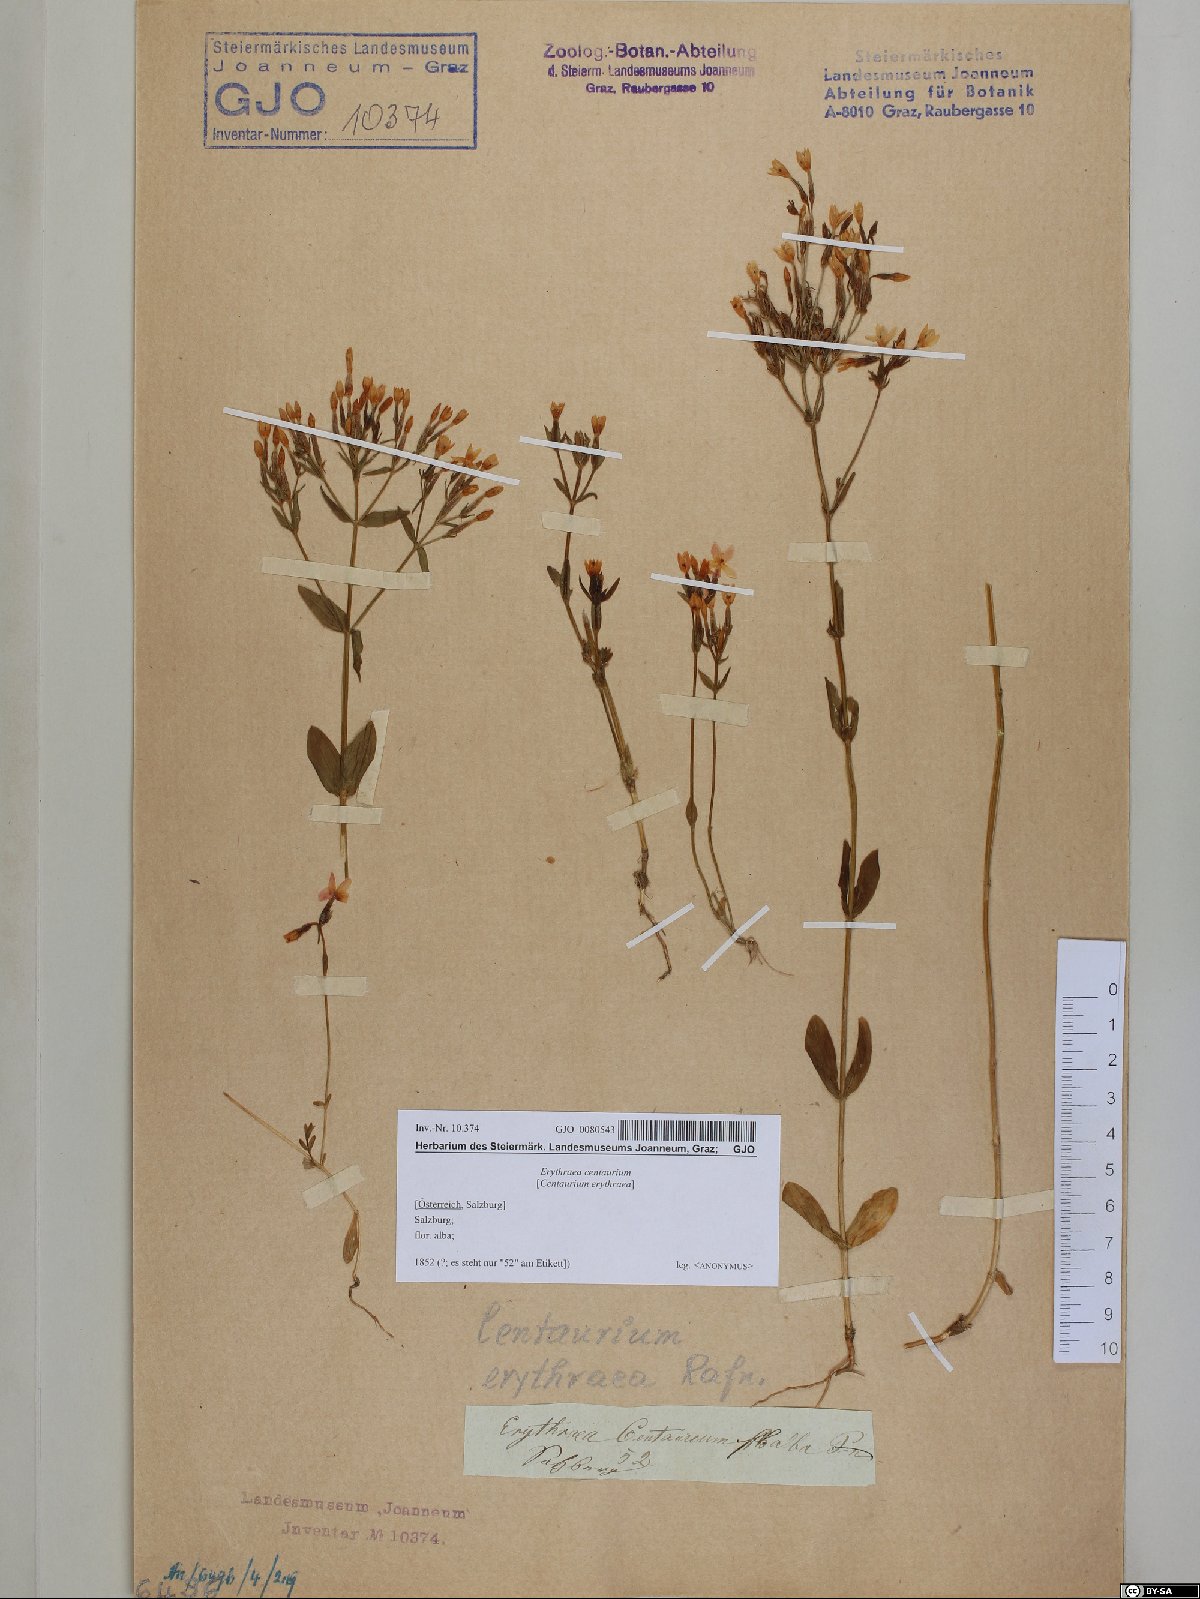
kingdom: Plantae
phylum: Tracheophyta
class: Magnoliopsida
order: Gentianales
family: Gentianaceae
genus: Centaurium
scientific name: Centaurium erythraea
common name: Common centaury
